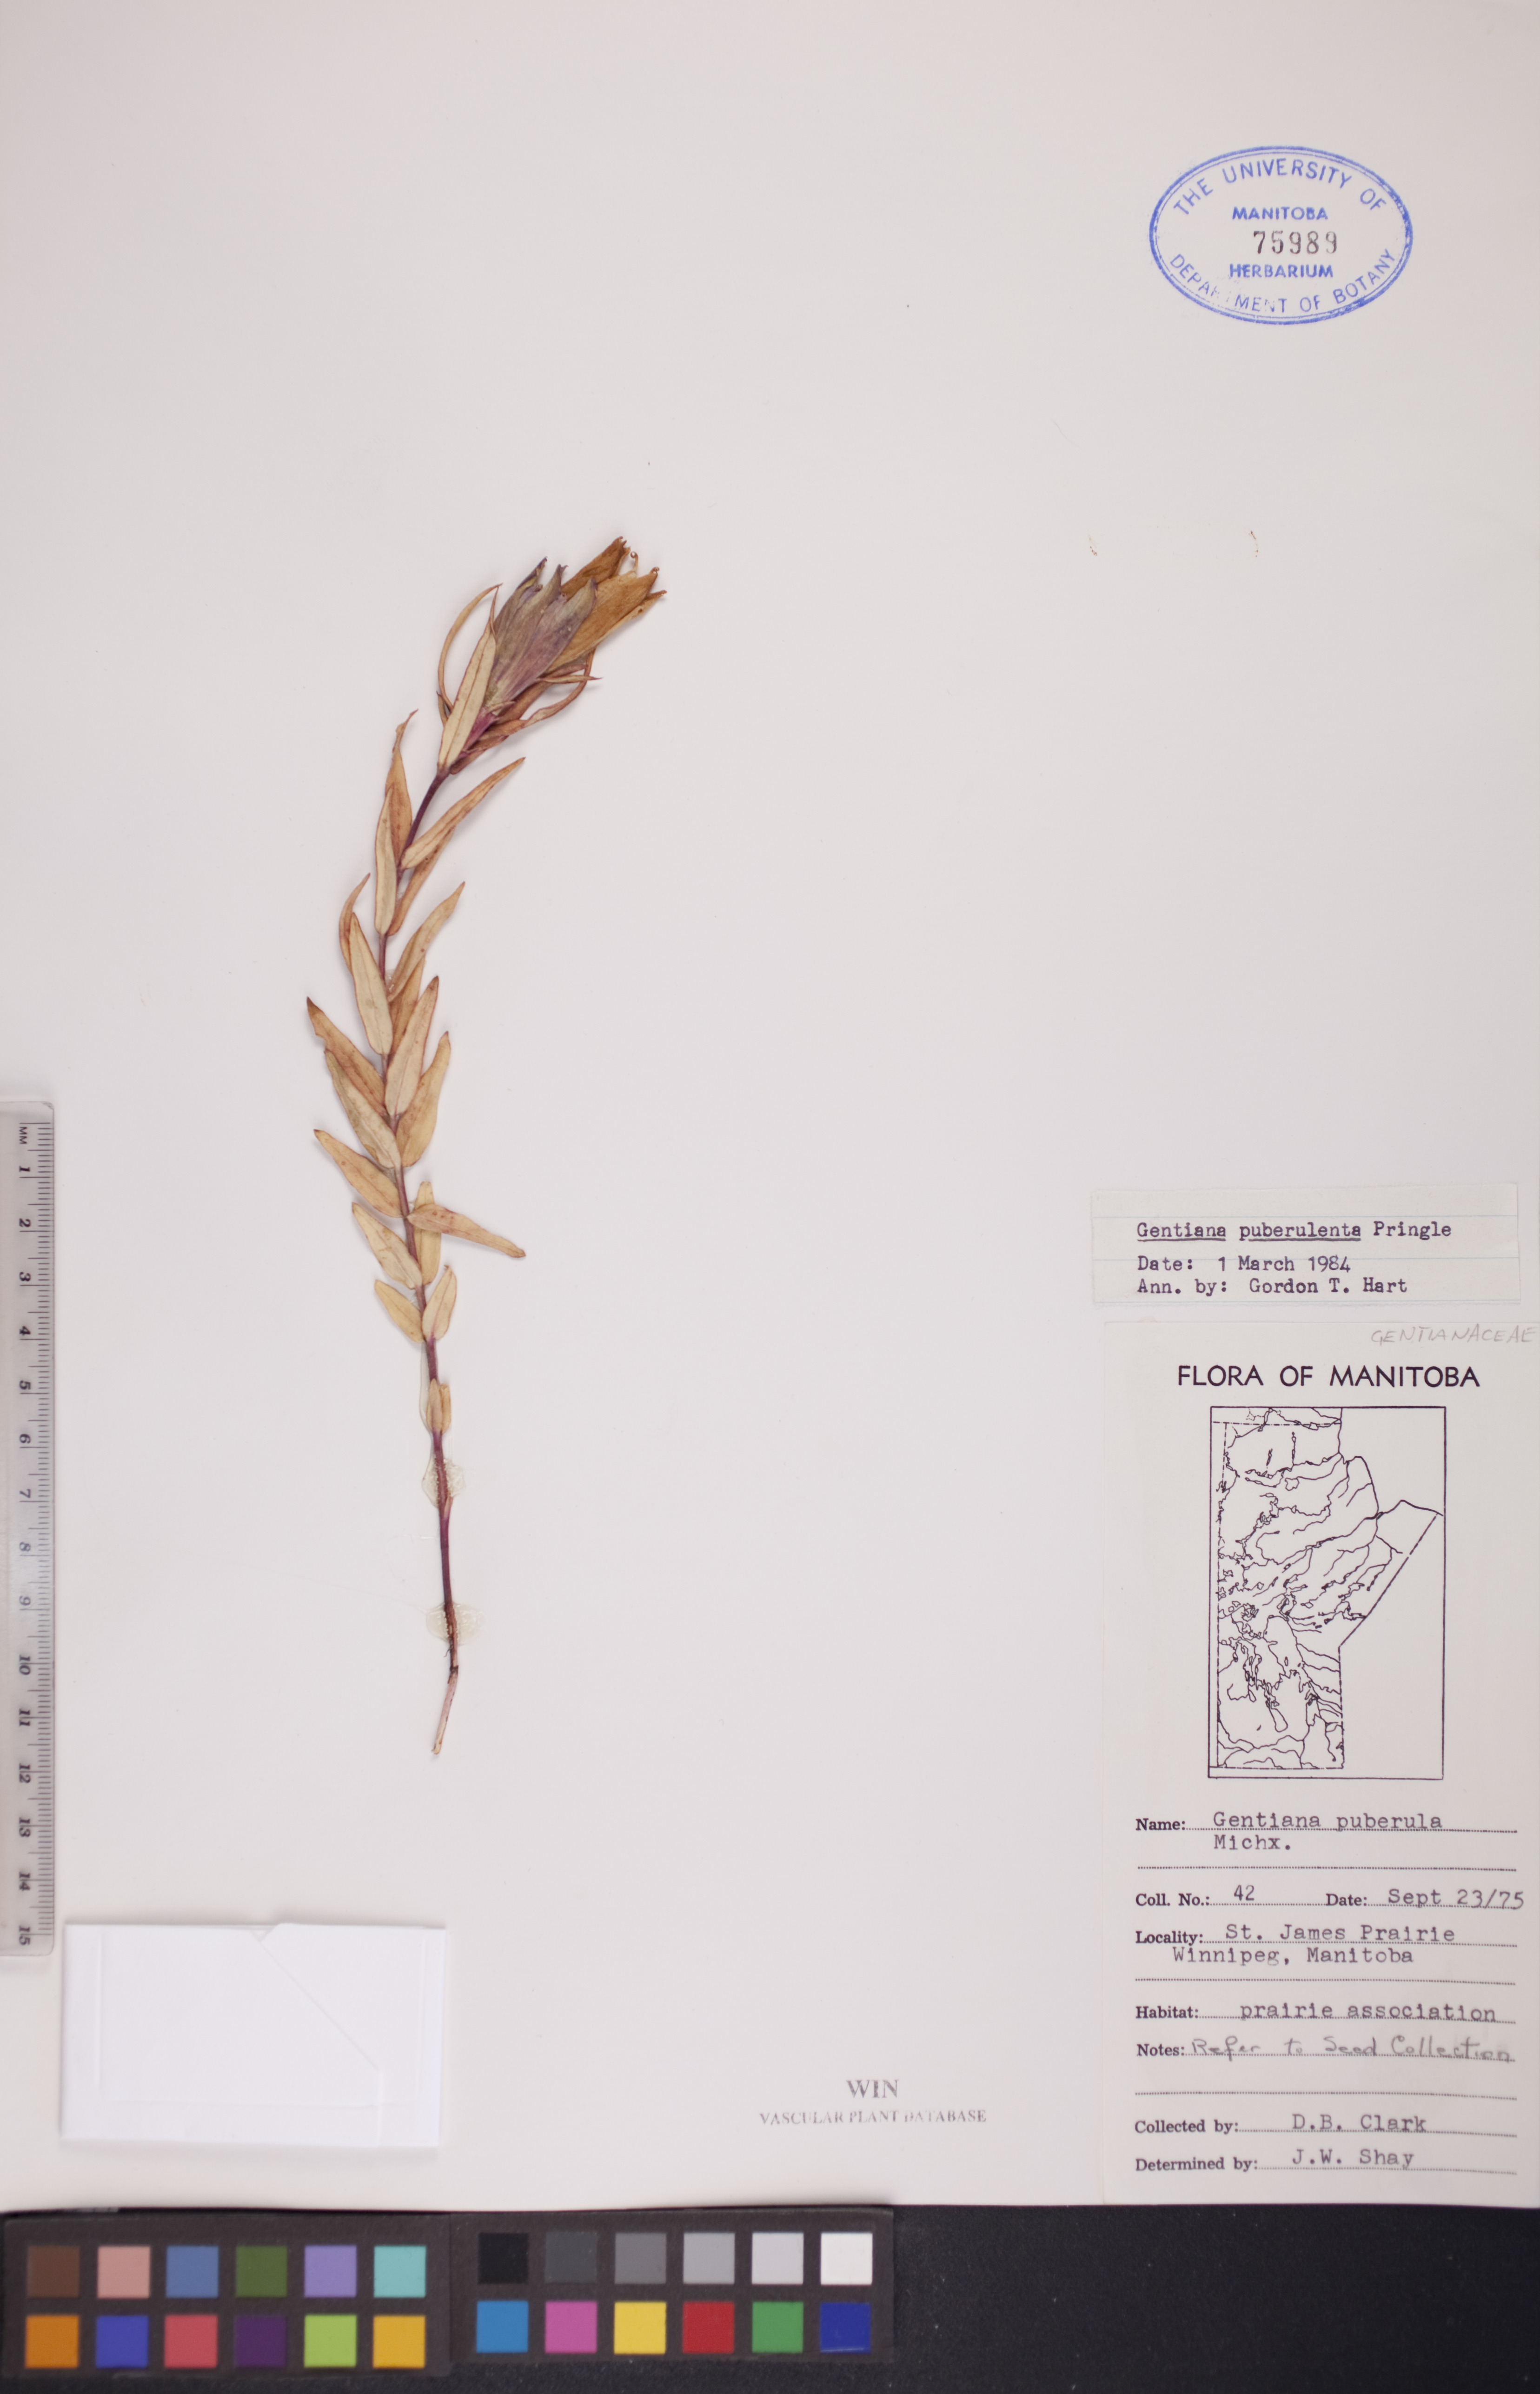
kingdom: Plantae
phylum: Tracheophyta
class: Magnoliopsida
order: Gentianales
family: Gentianaceae
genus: Gentiana
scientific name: Gentiana puberulenta
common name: Downy gentian
